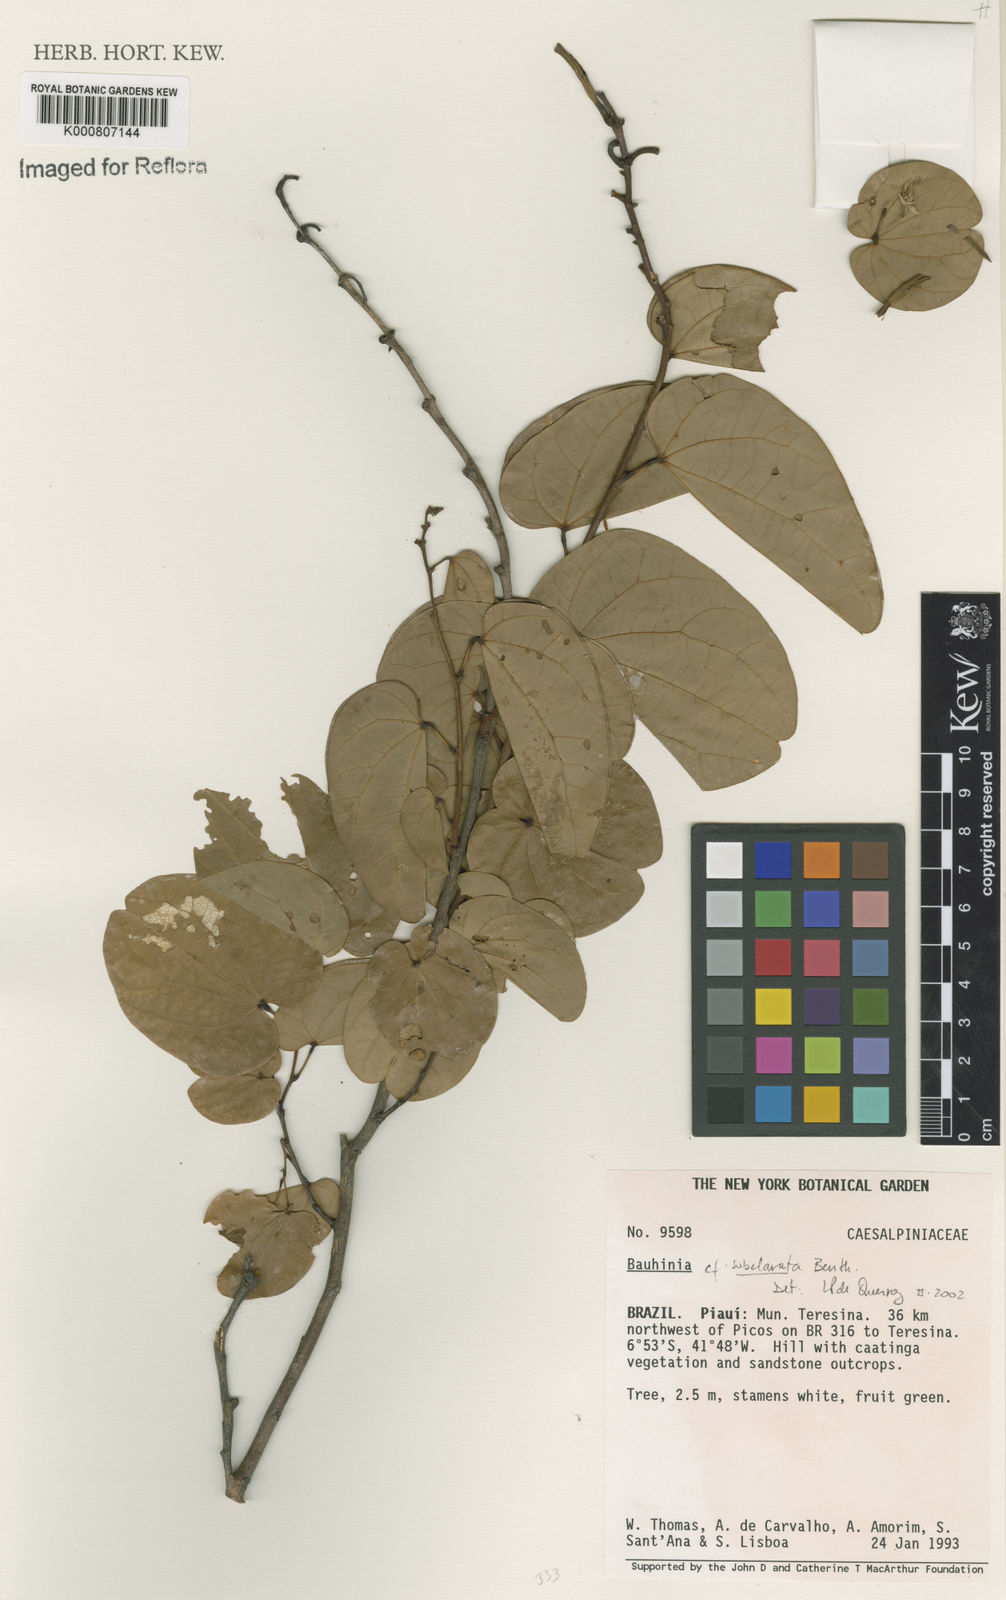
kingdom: Plantae
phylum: Tracheophyta
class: Magnoliopsida
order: Fabales
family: Fabaceae
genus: Bauhinia
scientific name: Bauhinia subclavata
